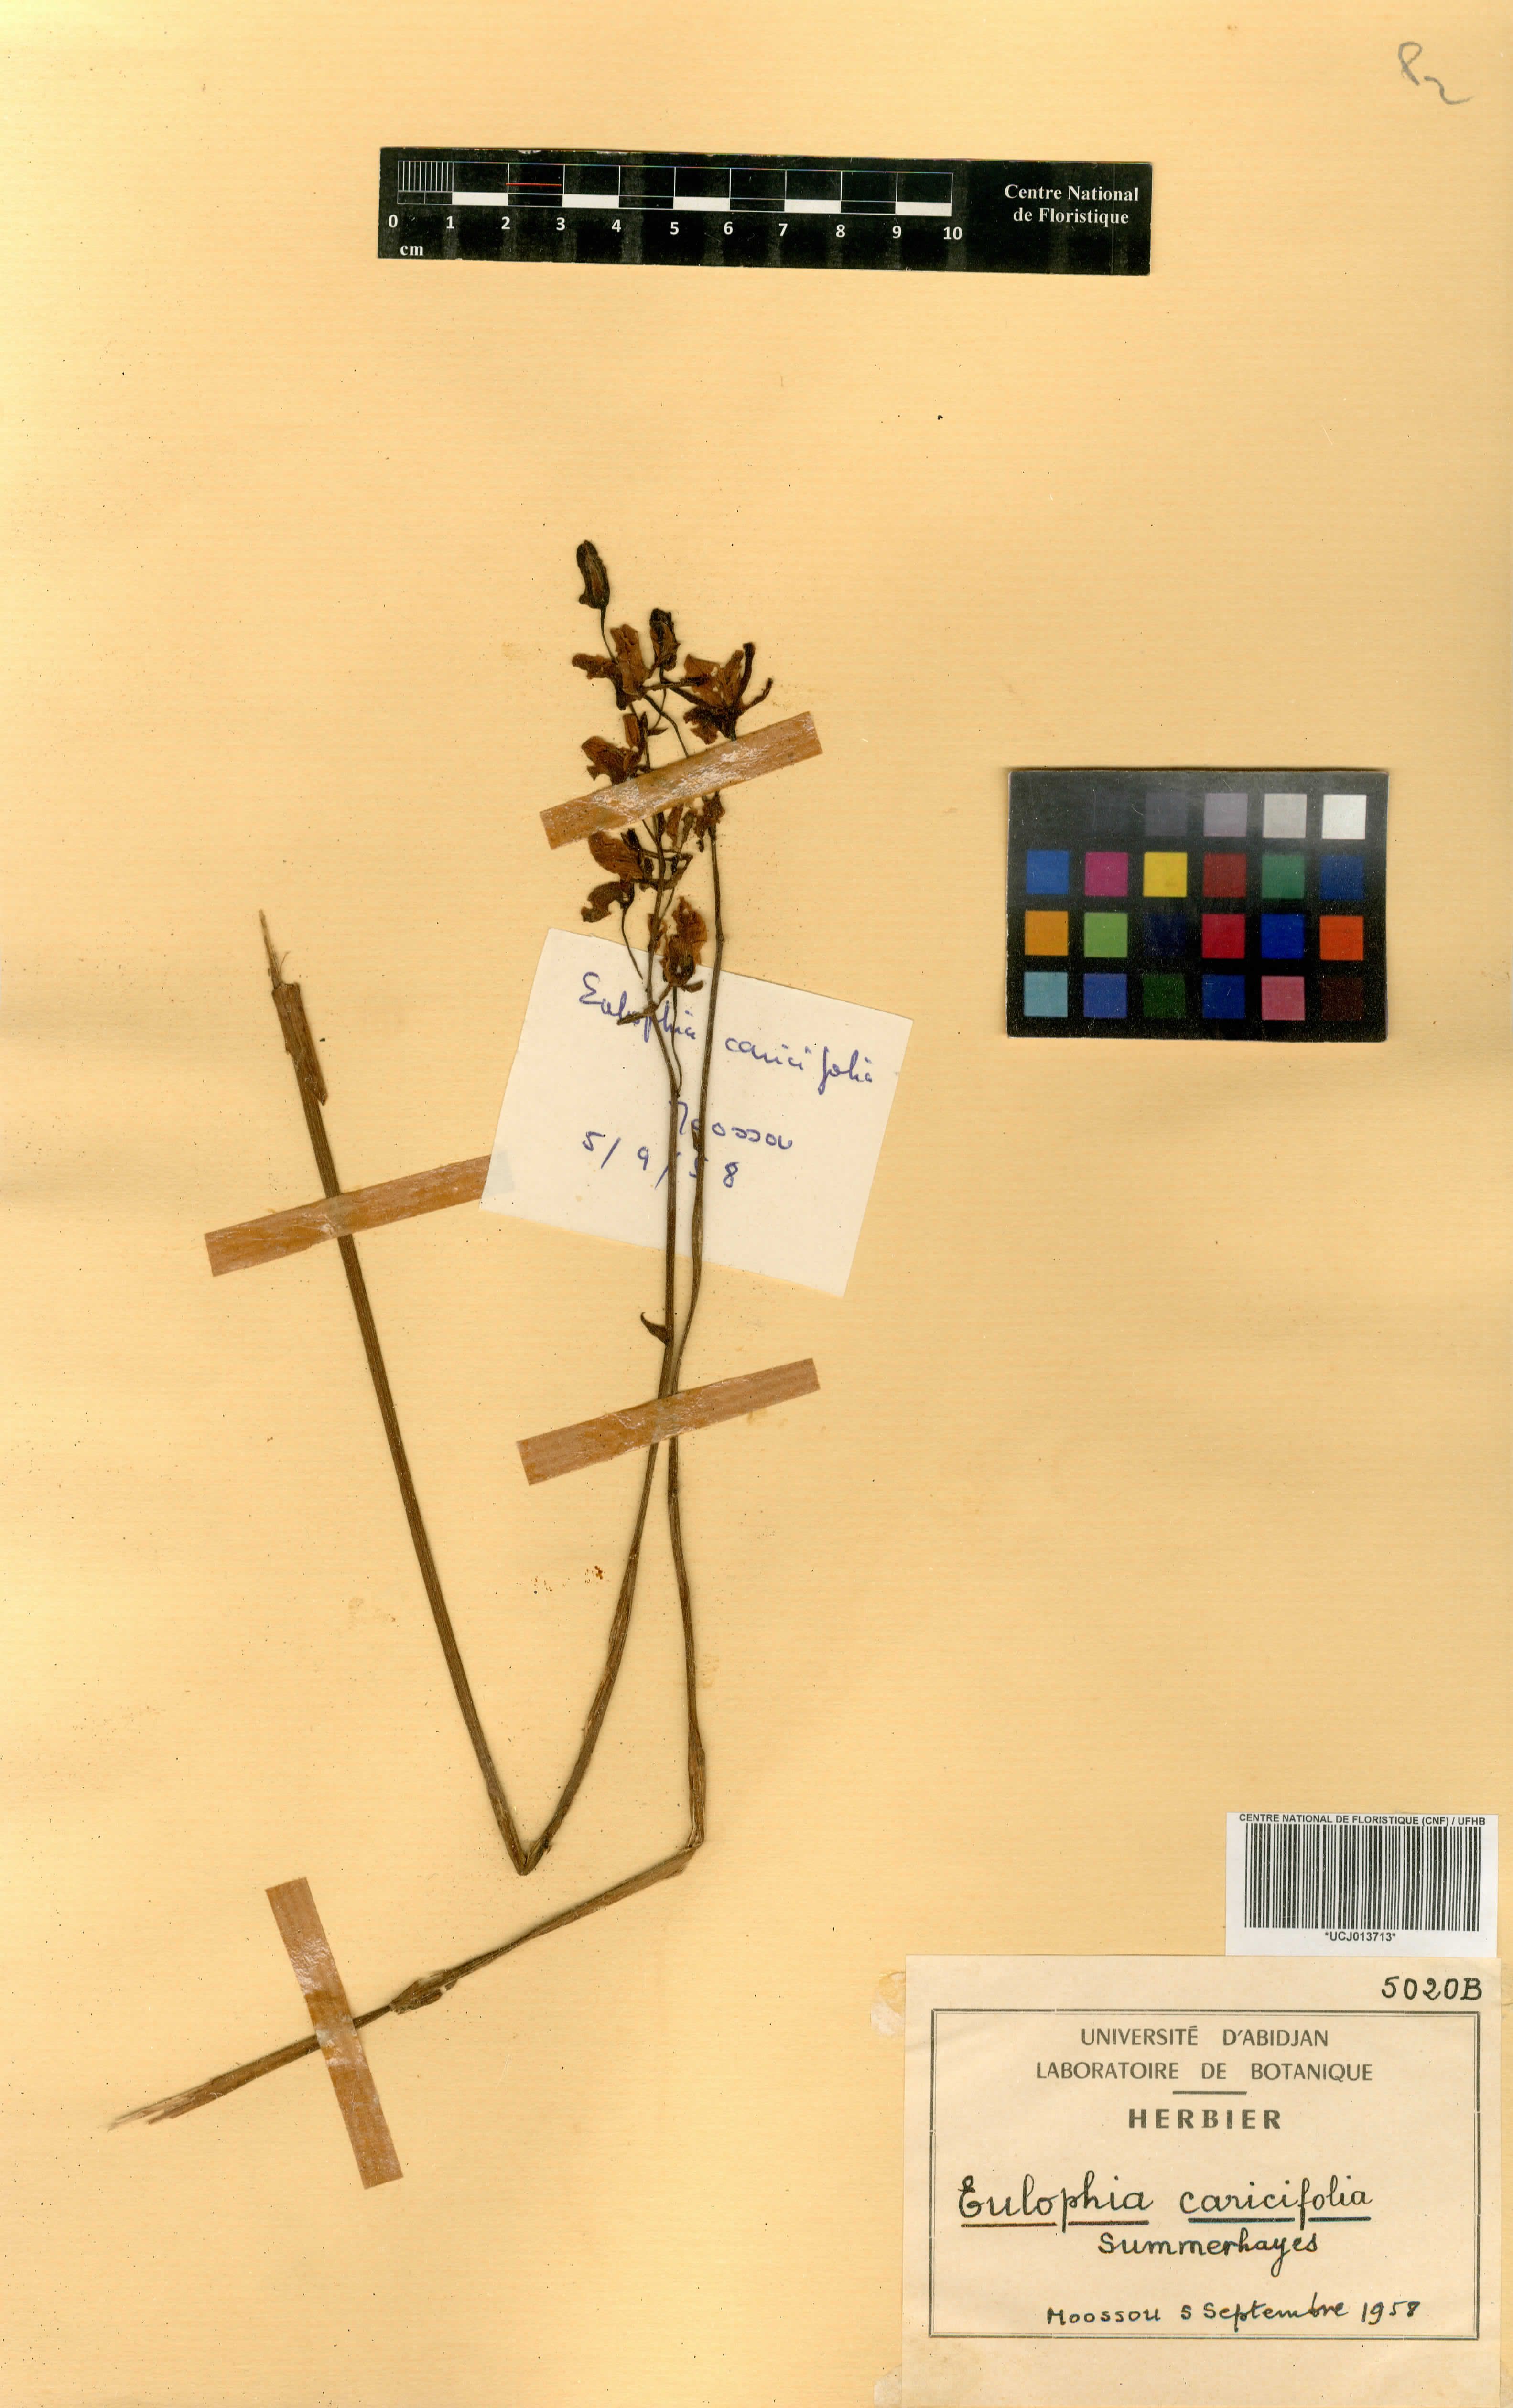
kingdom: Plantae
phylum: Tracheophyta
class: Liliopsida
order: Asparagales
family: Orchidaceae
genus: Eulophia
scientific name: Eulophia caricifolia
